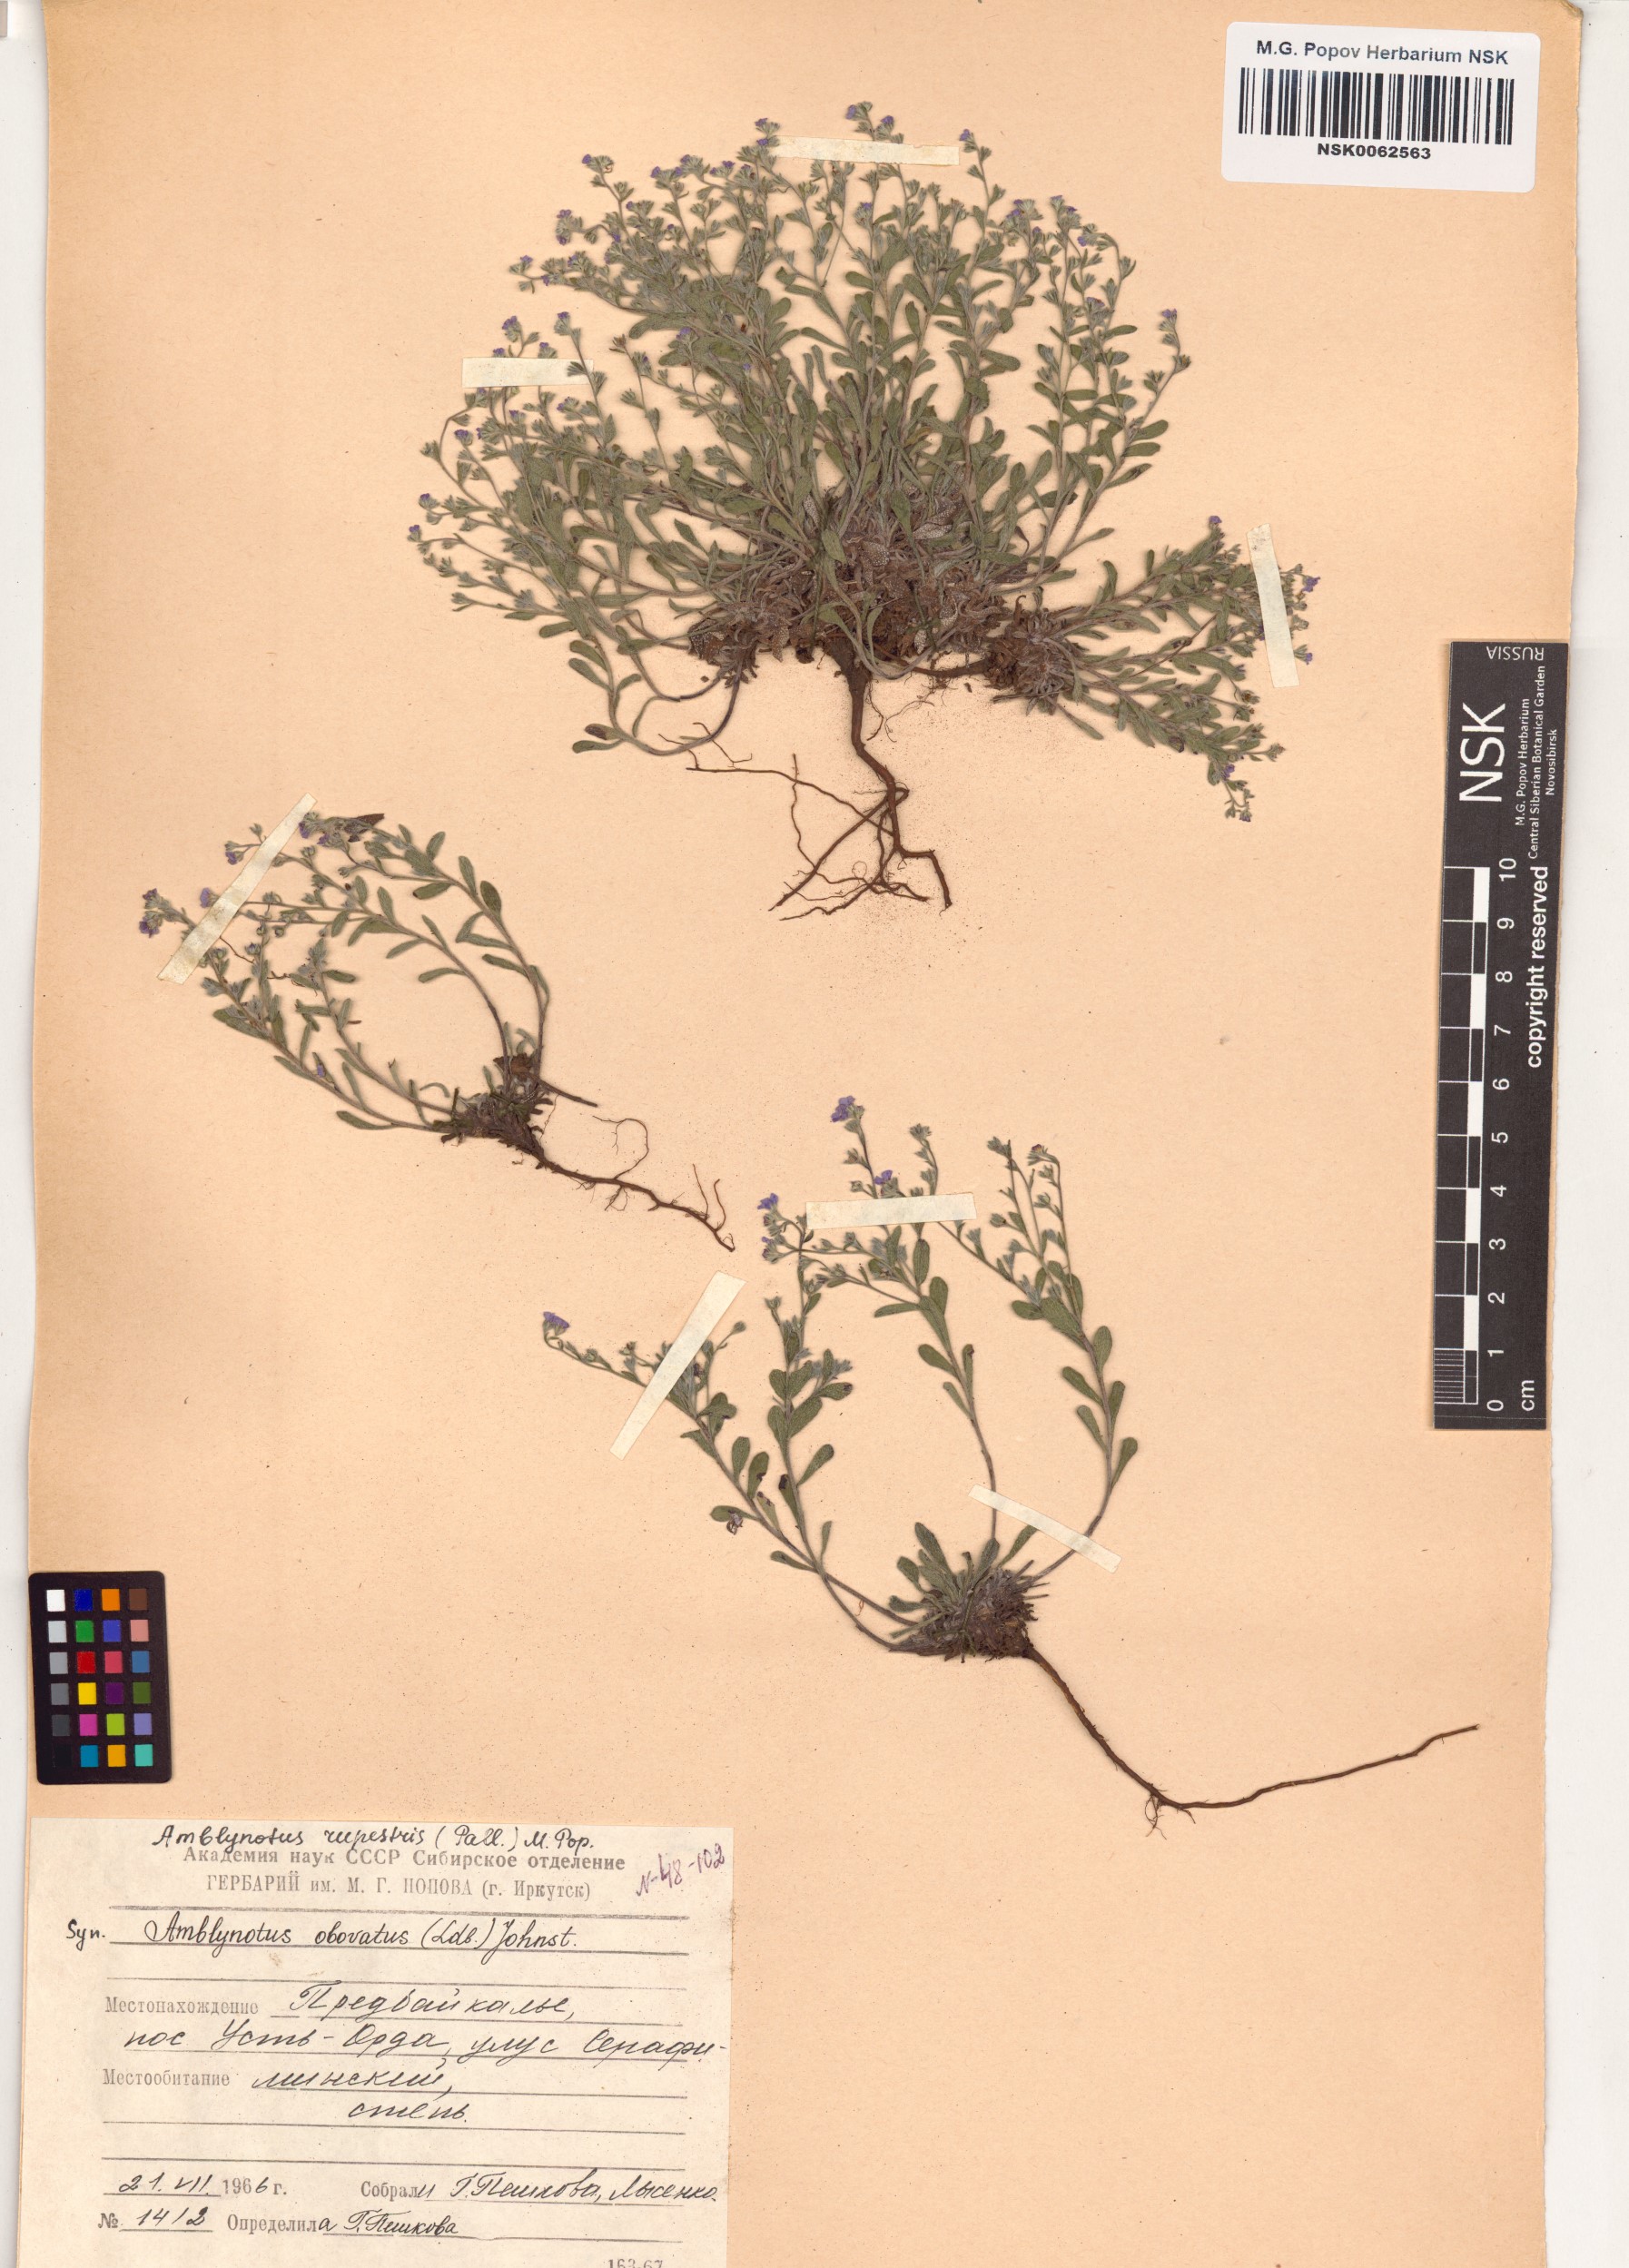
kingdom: Plantae
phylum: Tracheophyta
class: Magnoliopsida
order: Boraginales
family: Boraginaceae
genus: Eritrichium
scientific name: Eritrichium rupestre
